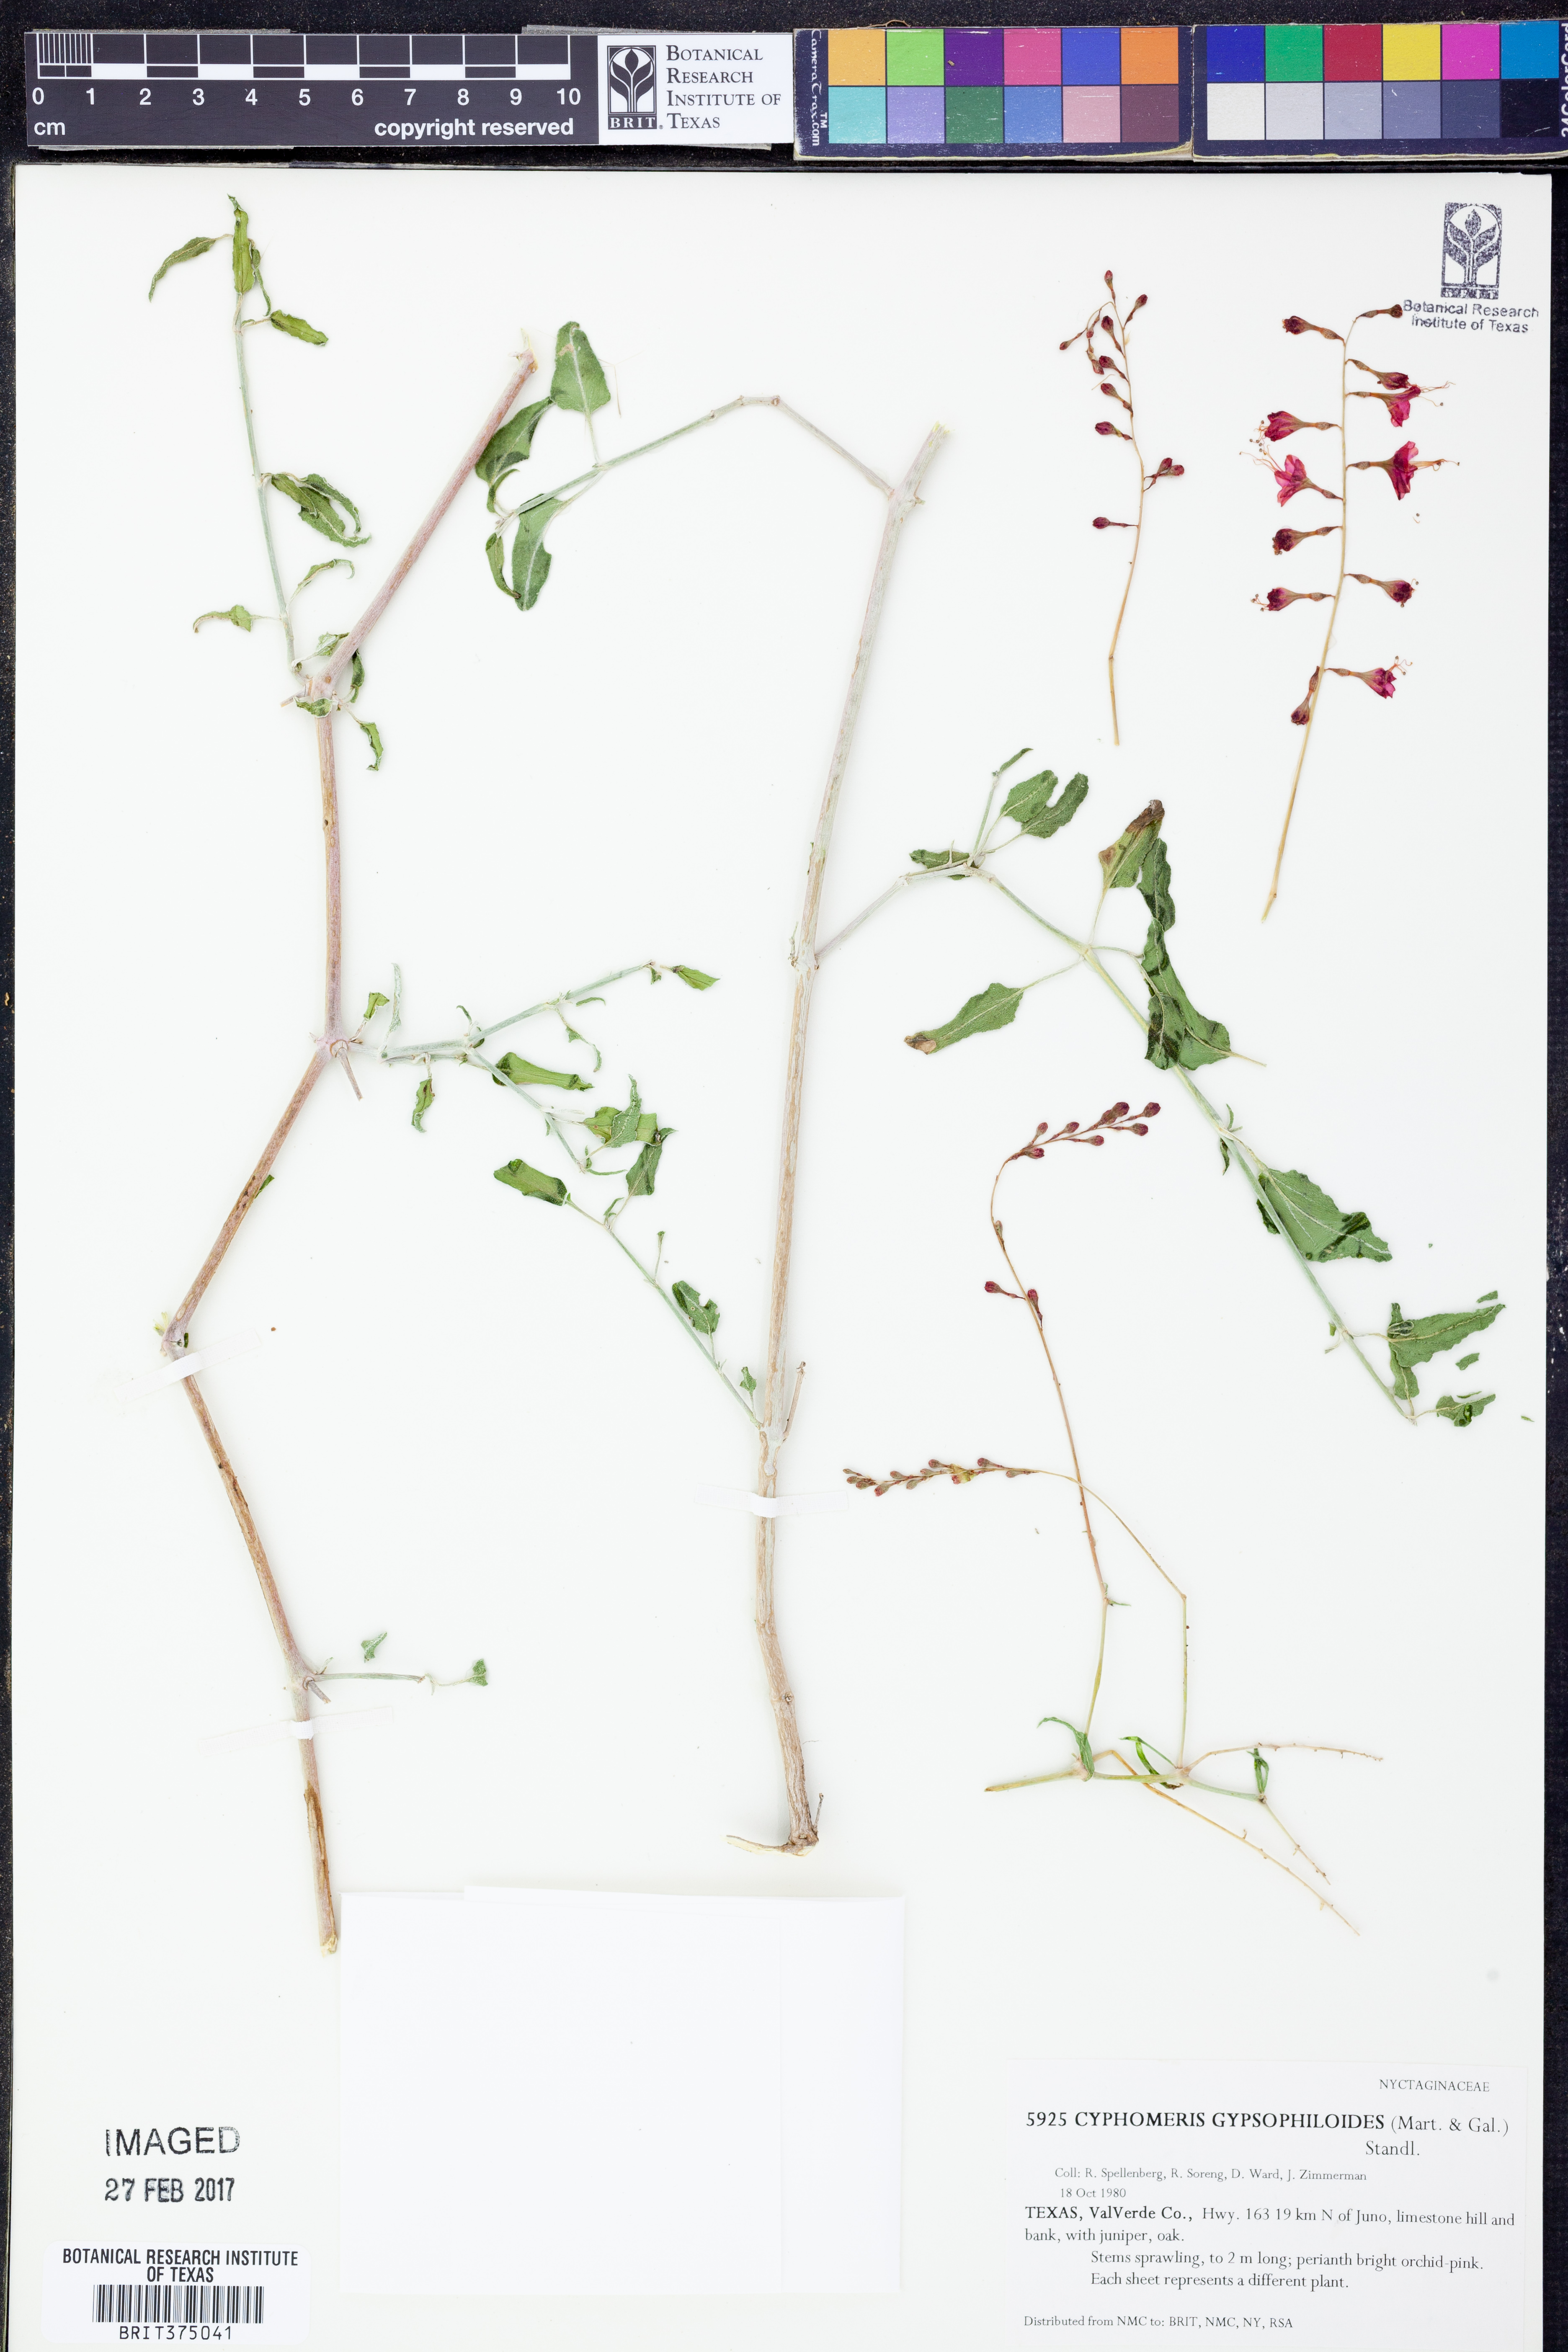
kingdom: Plantae
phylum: Tracheophyta
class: Magnoliopsida
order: Caryophyllales
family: Nyctaginaceae
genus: Cyphomeris
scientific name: Cyphomeris gypsophiloides
